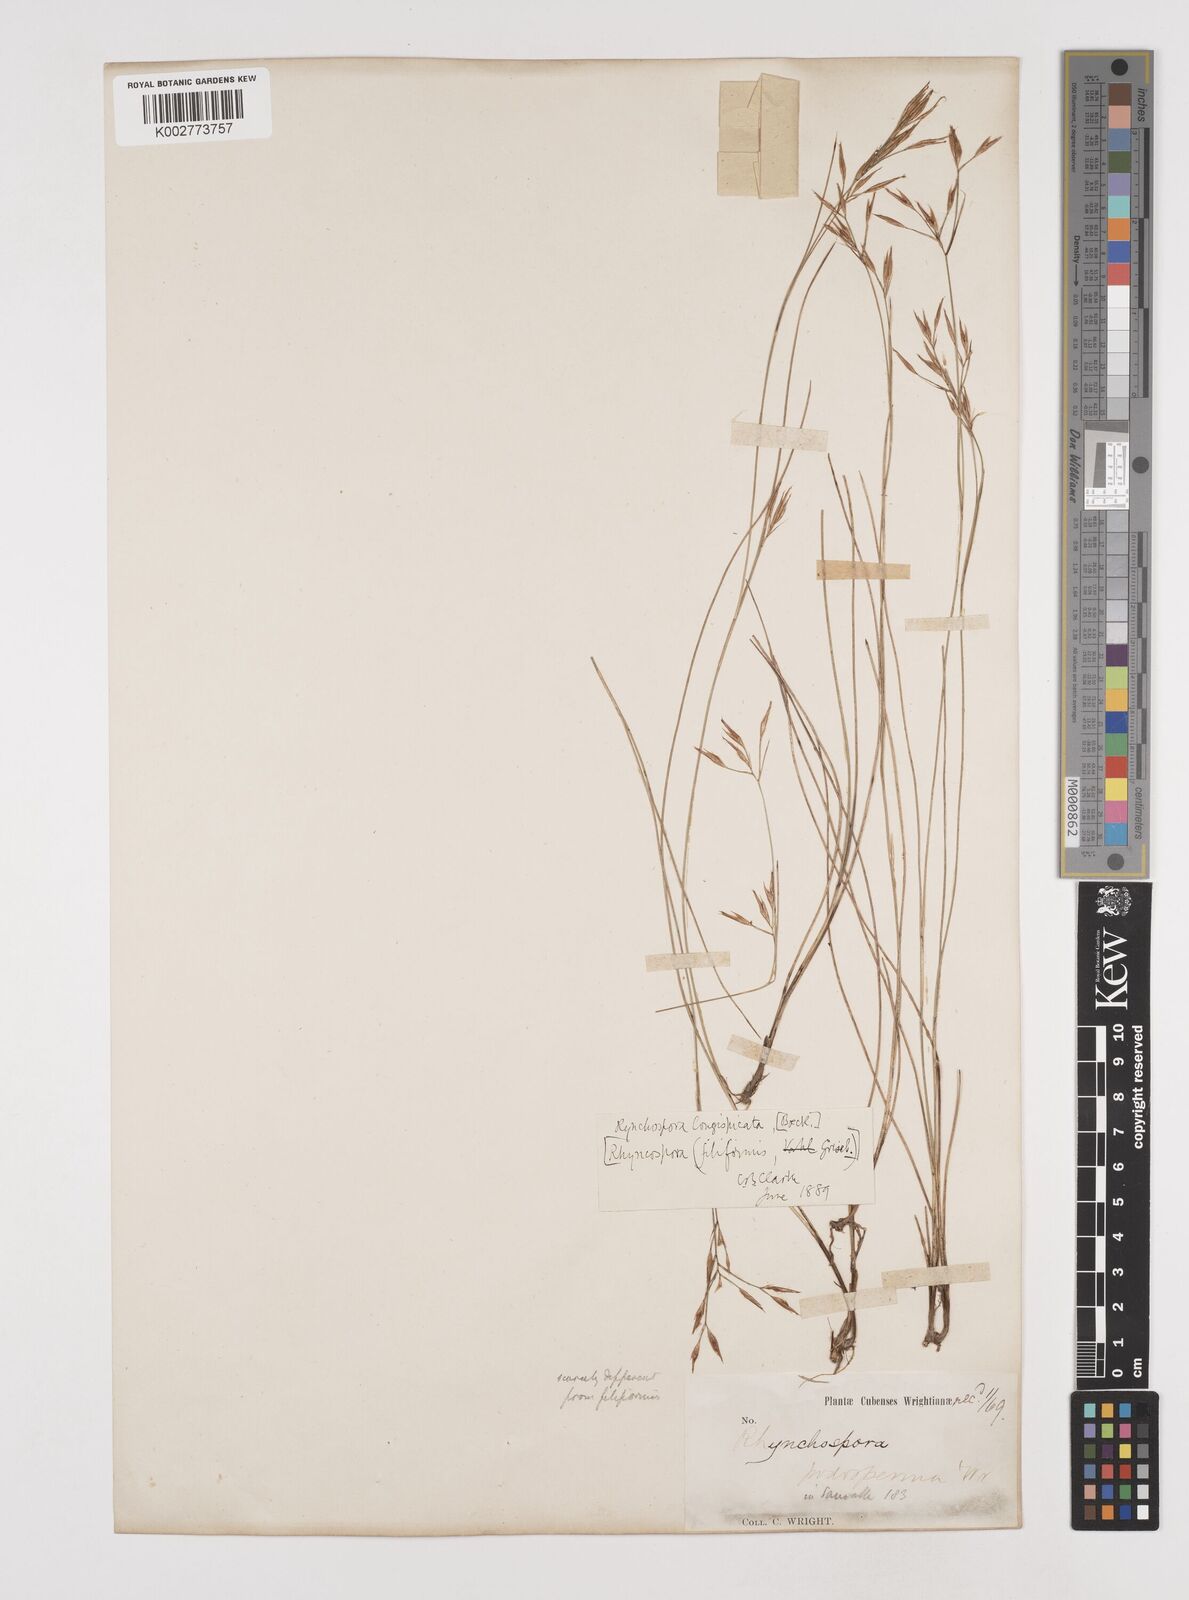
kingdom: Plantae
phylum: Tracheophyta
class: Liliopsida
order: Poales
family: Cyperaceae
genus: Rhynchospora
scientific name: Rhynchospora recognita
